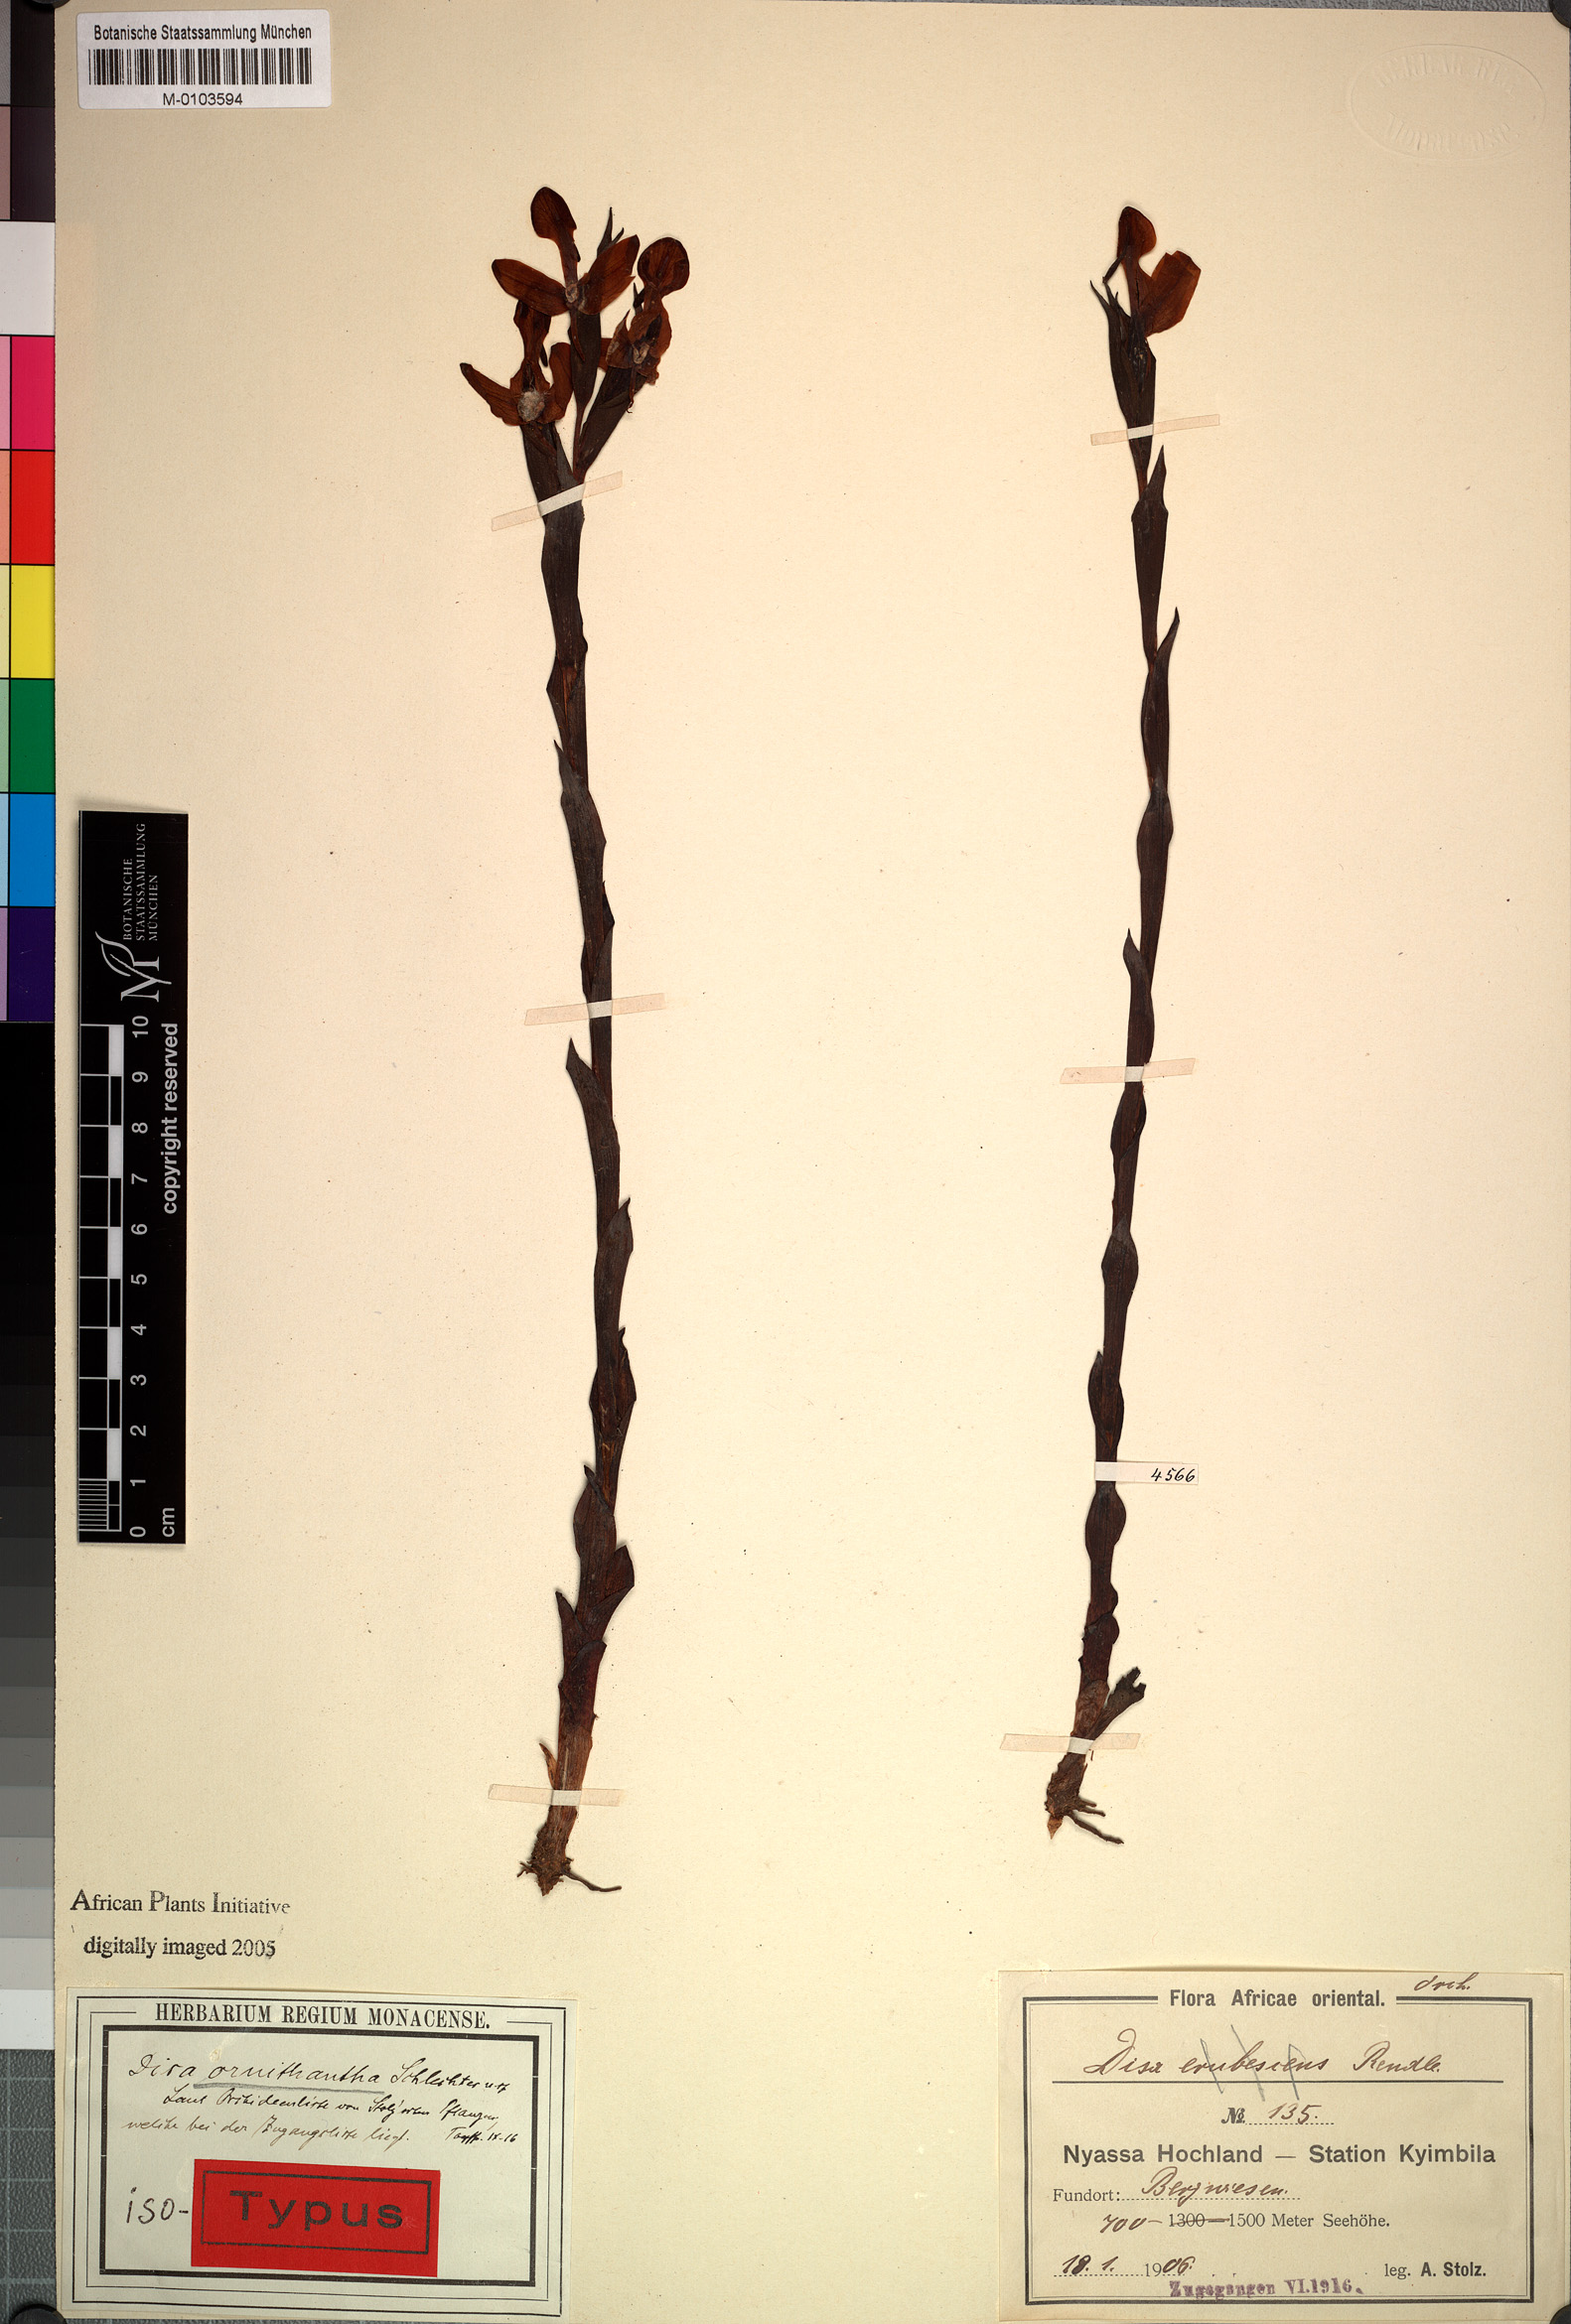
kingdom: Plantae
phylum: Tracheophyta
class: Liliopsida
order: Asparagales
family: Orchidaceae
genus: Disa
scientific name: Disa ornithantha
